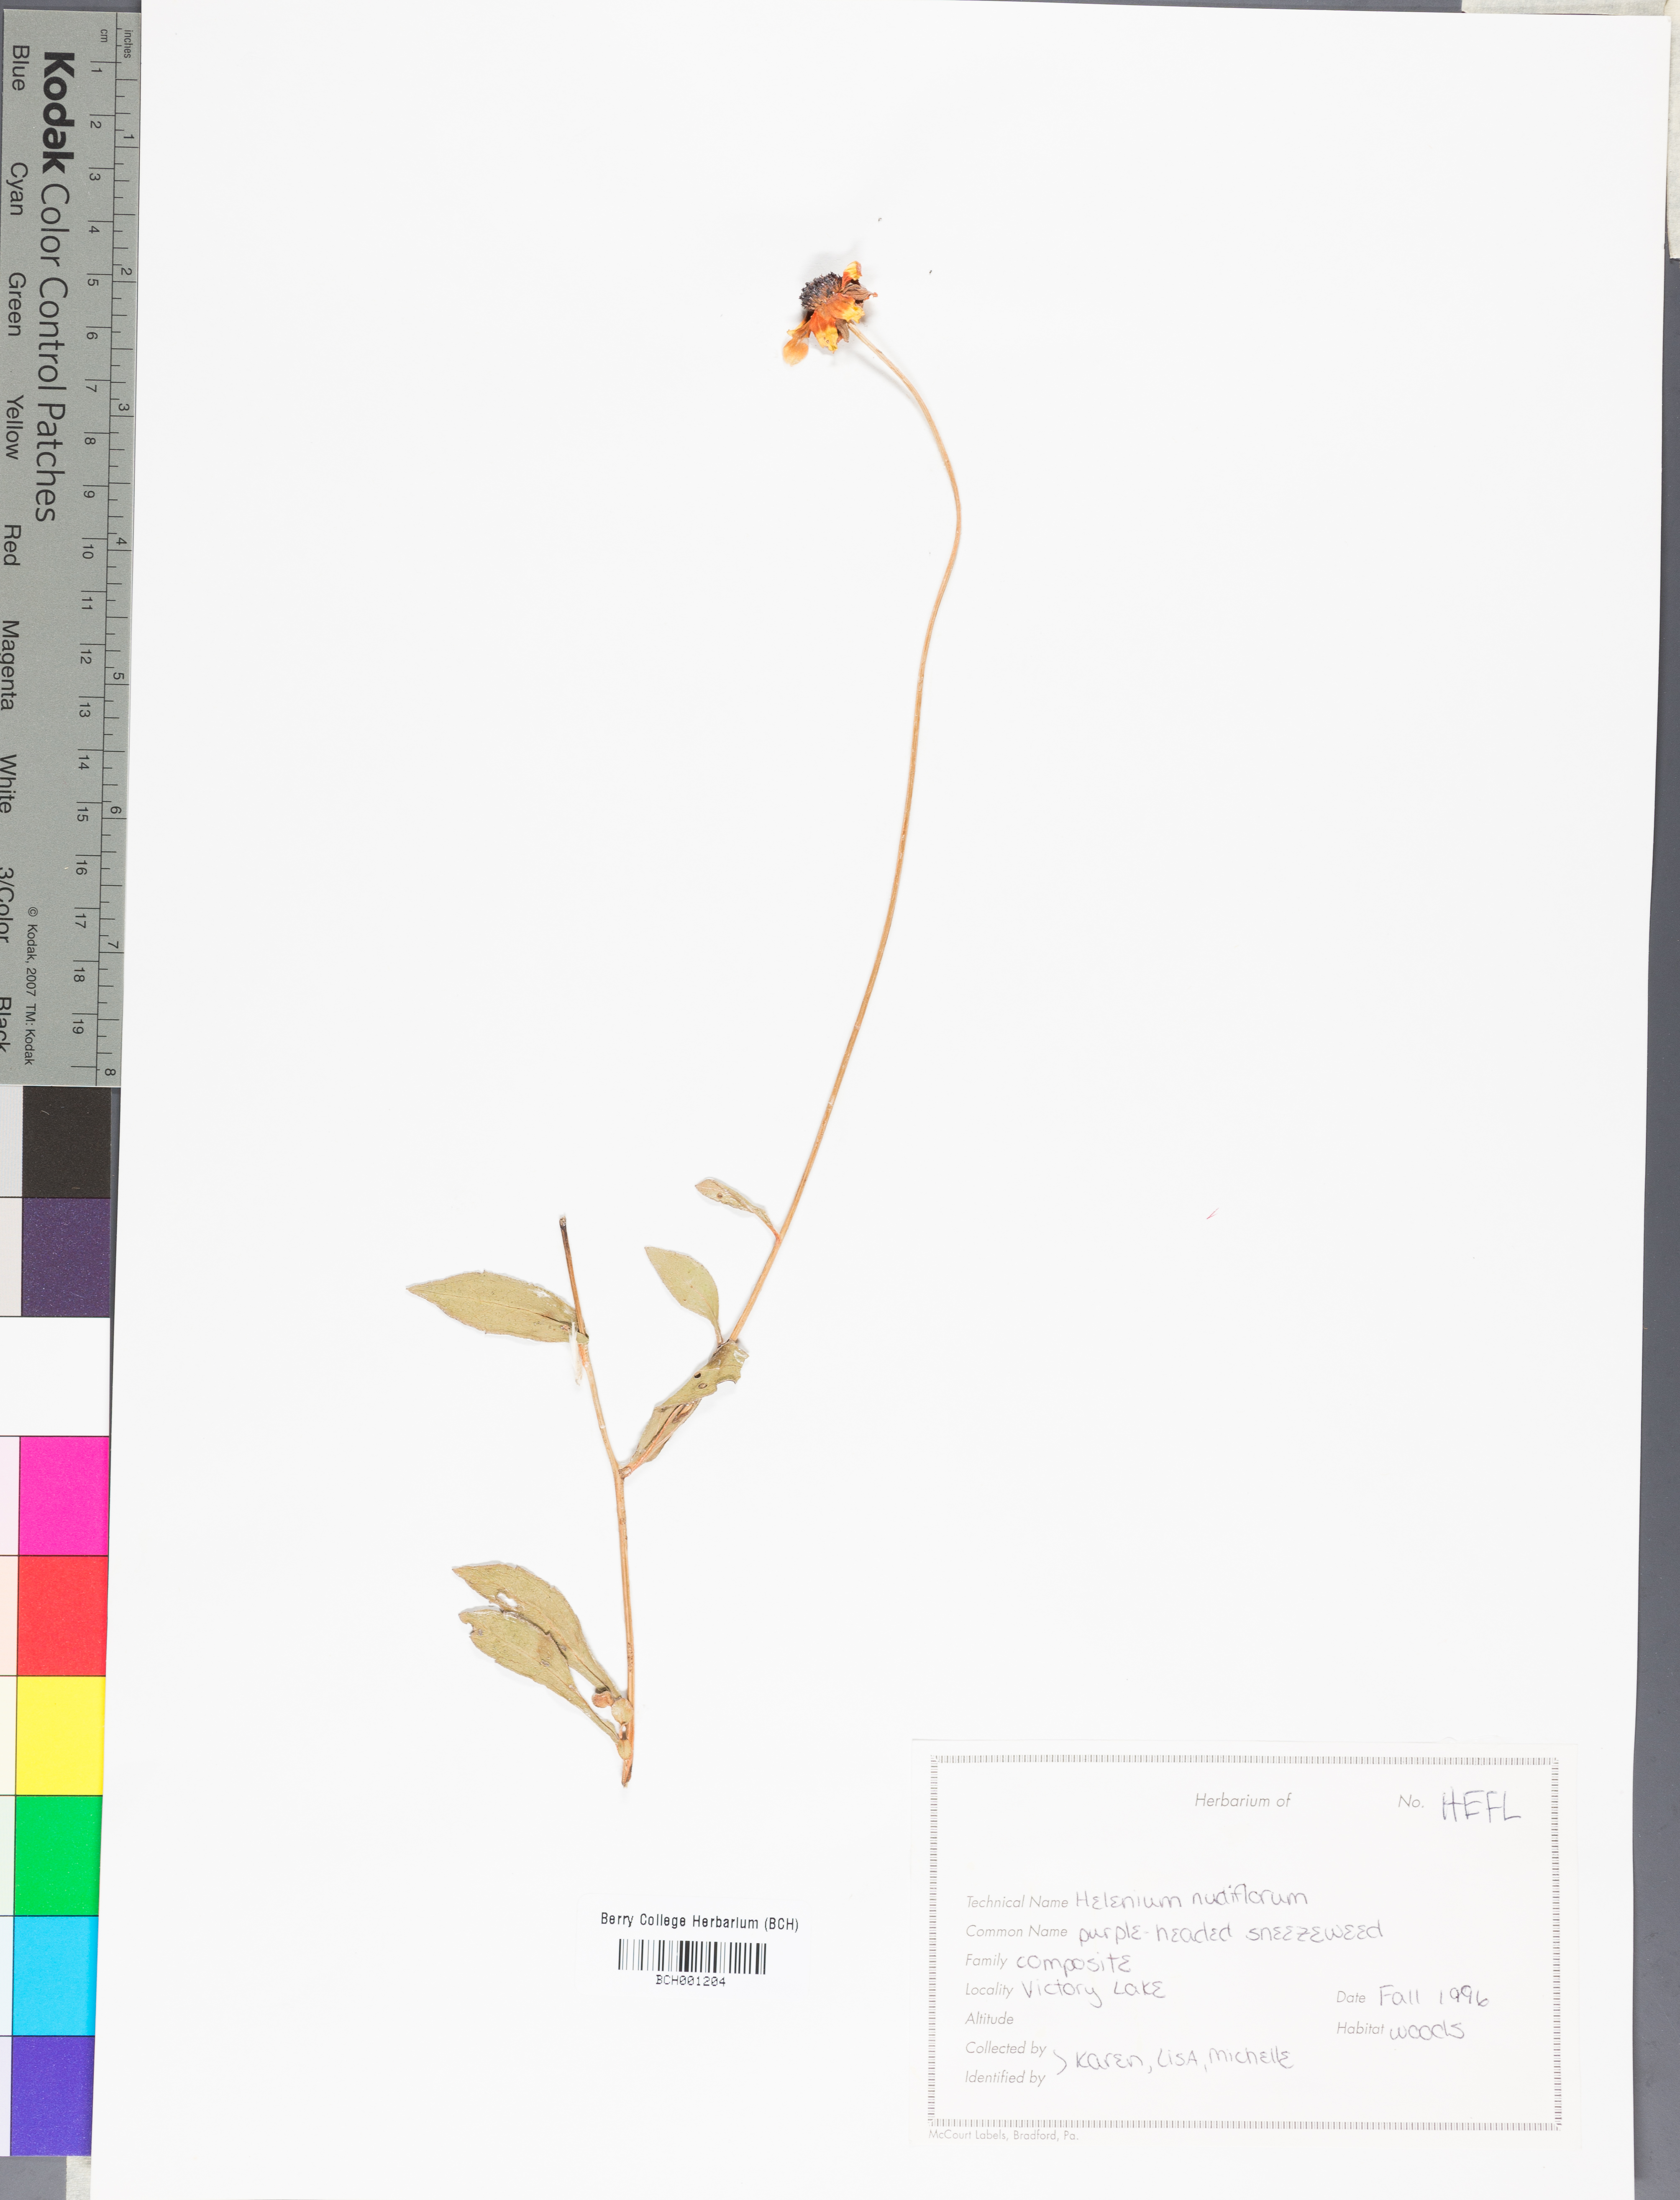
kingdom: Plantae
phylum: Tracheophyta
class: Magnoliopsida
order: Asterales
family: Asteraceae
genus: Helenium
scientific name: Helenium flexuosum
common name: Naked-flowered sneezeweed
